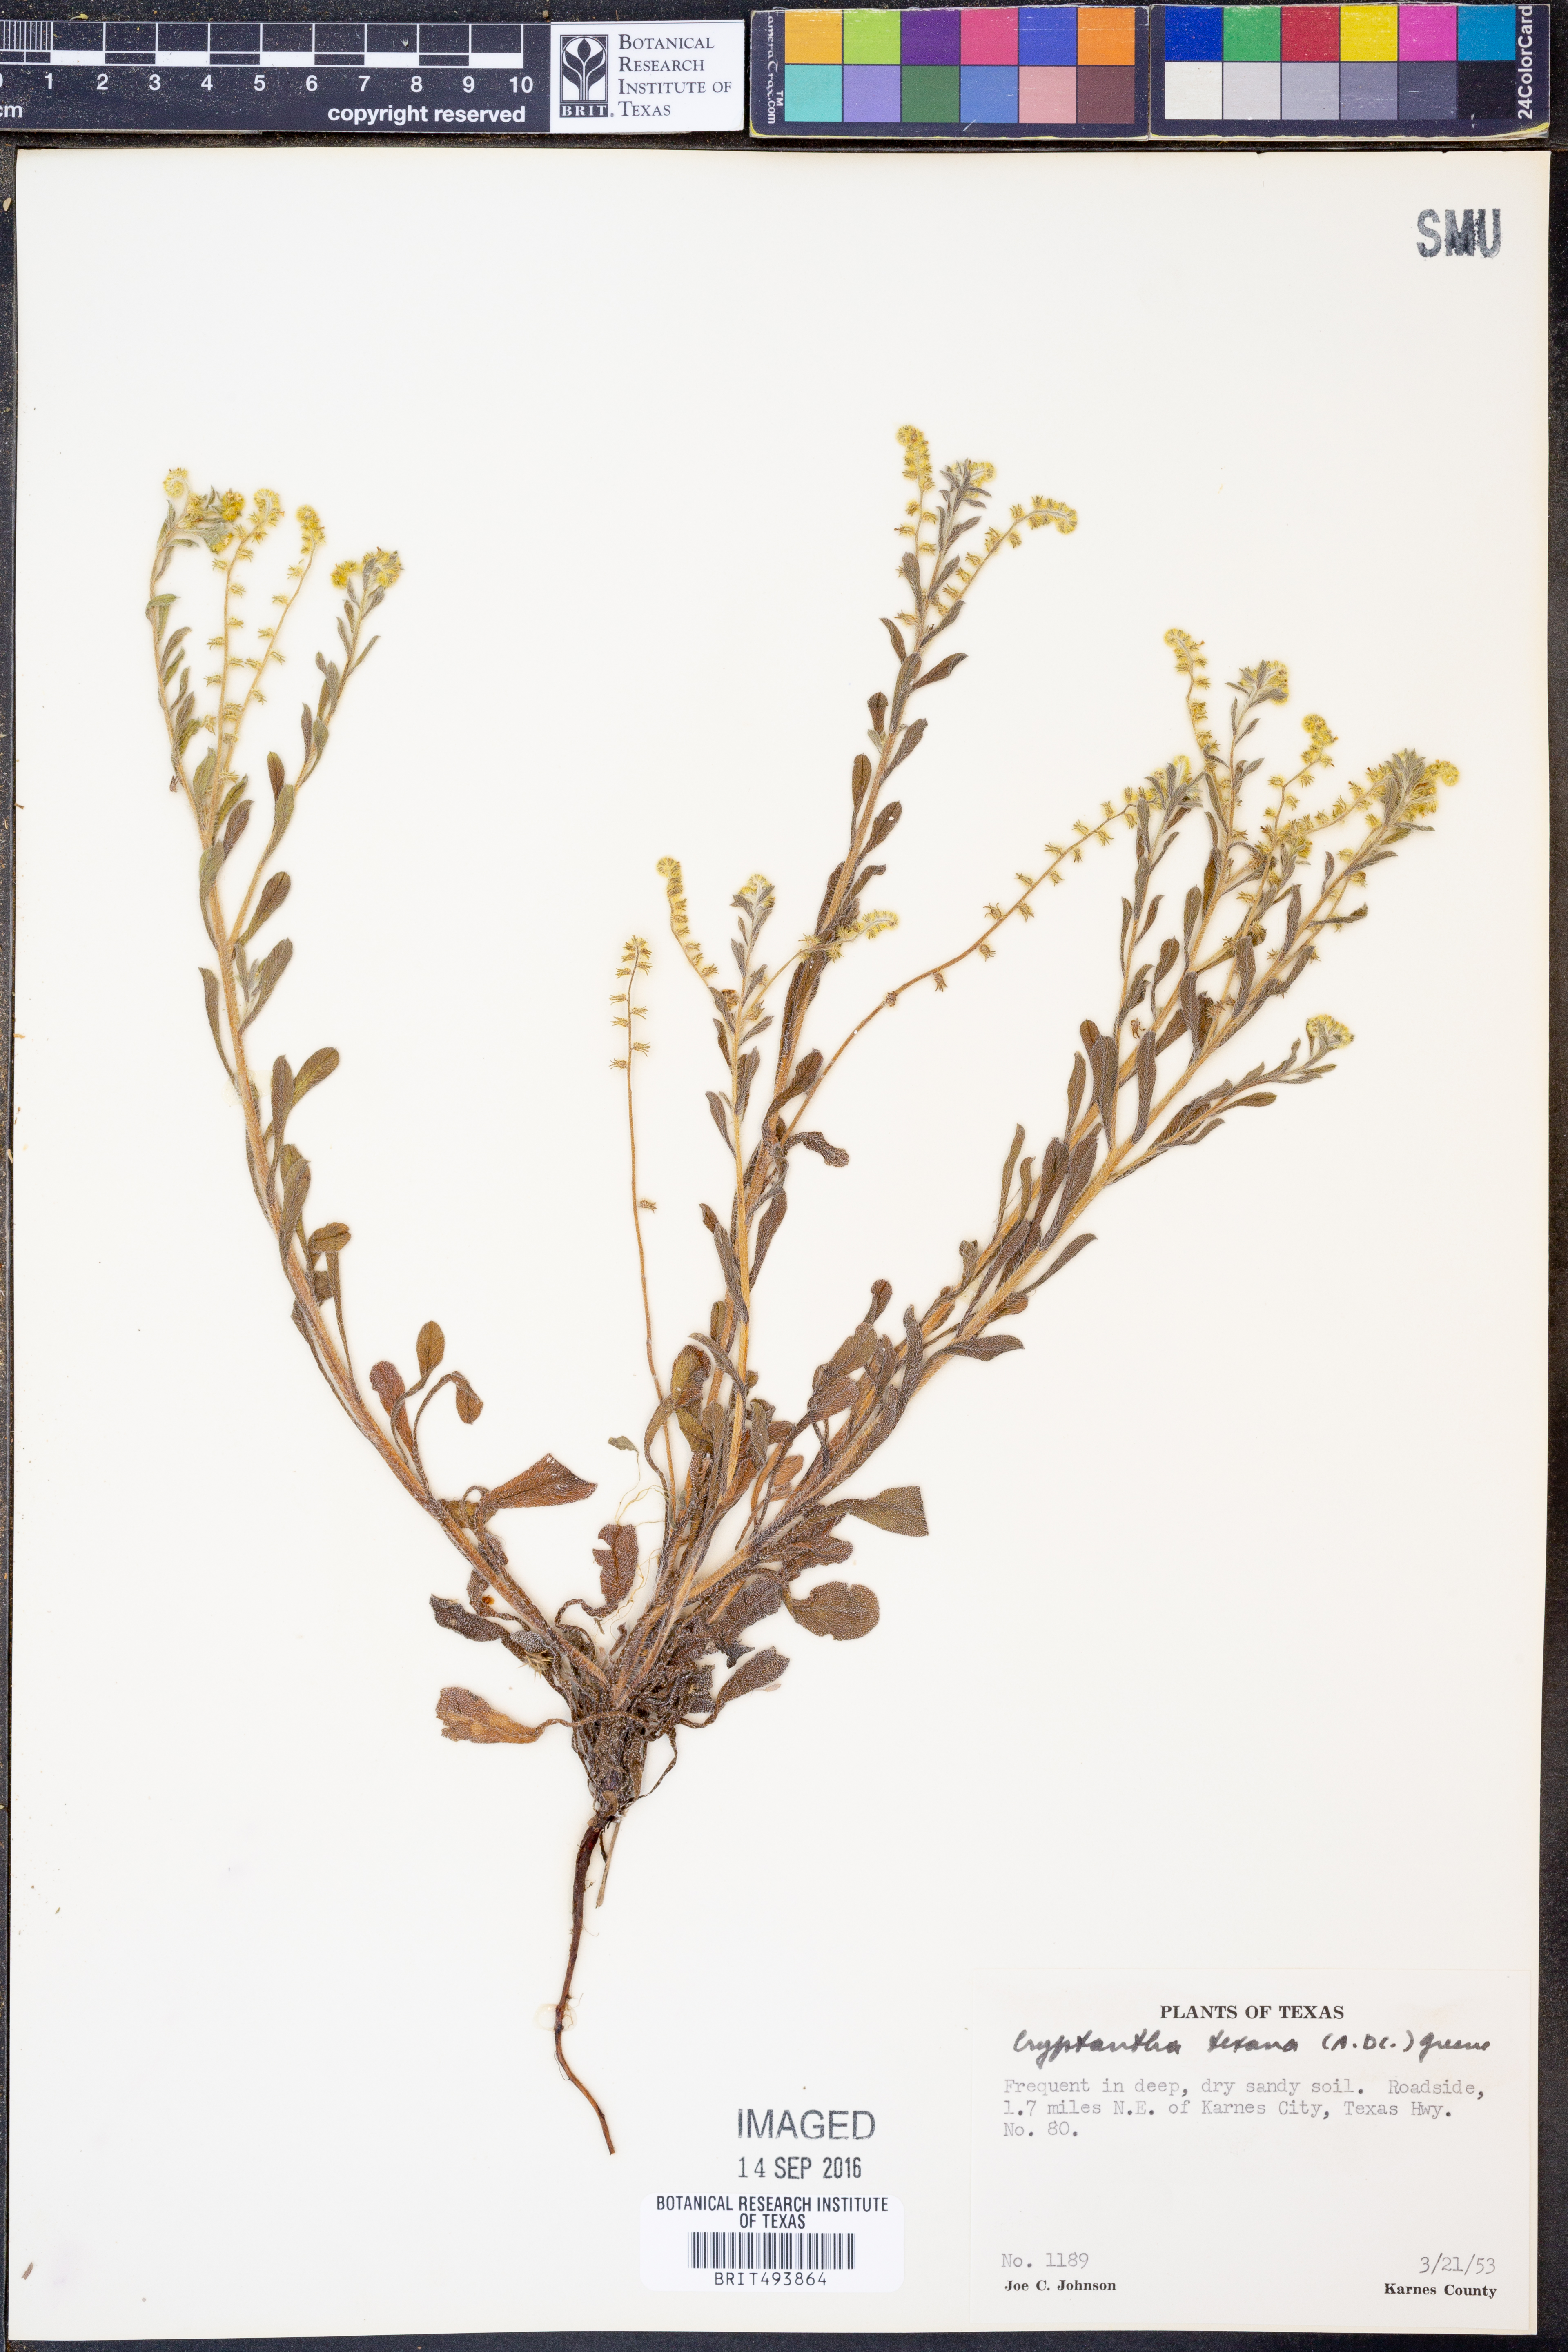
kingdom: Plantae
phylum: Tracheophyta
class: Magnoliopsida
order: Boraginales
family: Boraginaceae
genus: Cryptantha
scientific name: Cryptantha texana
